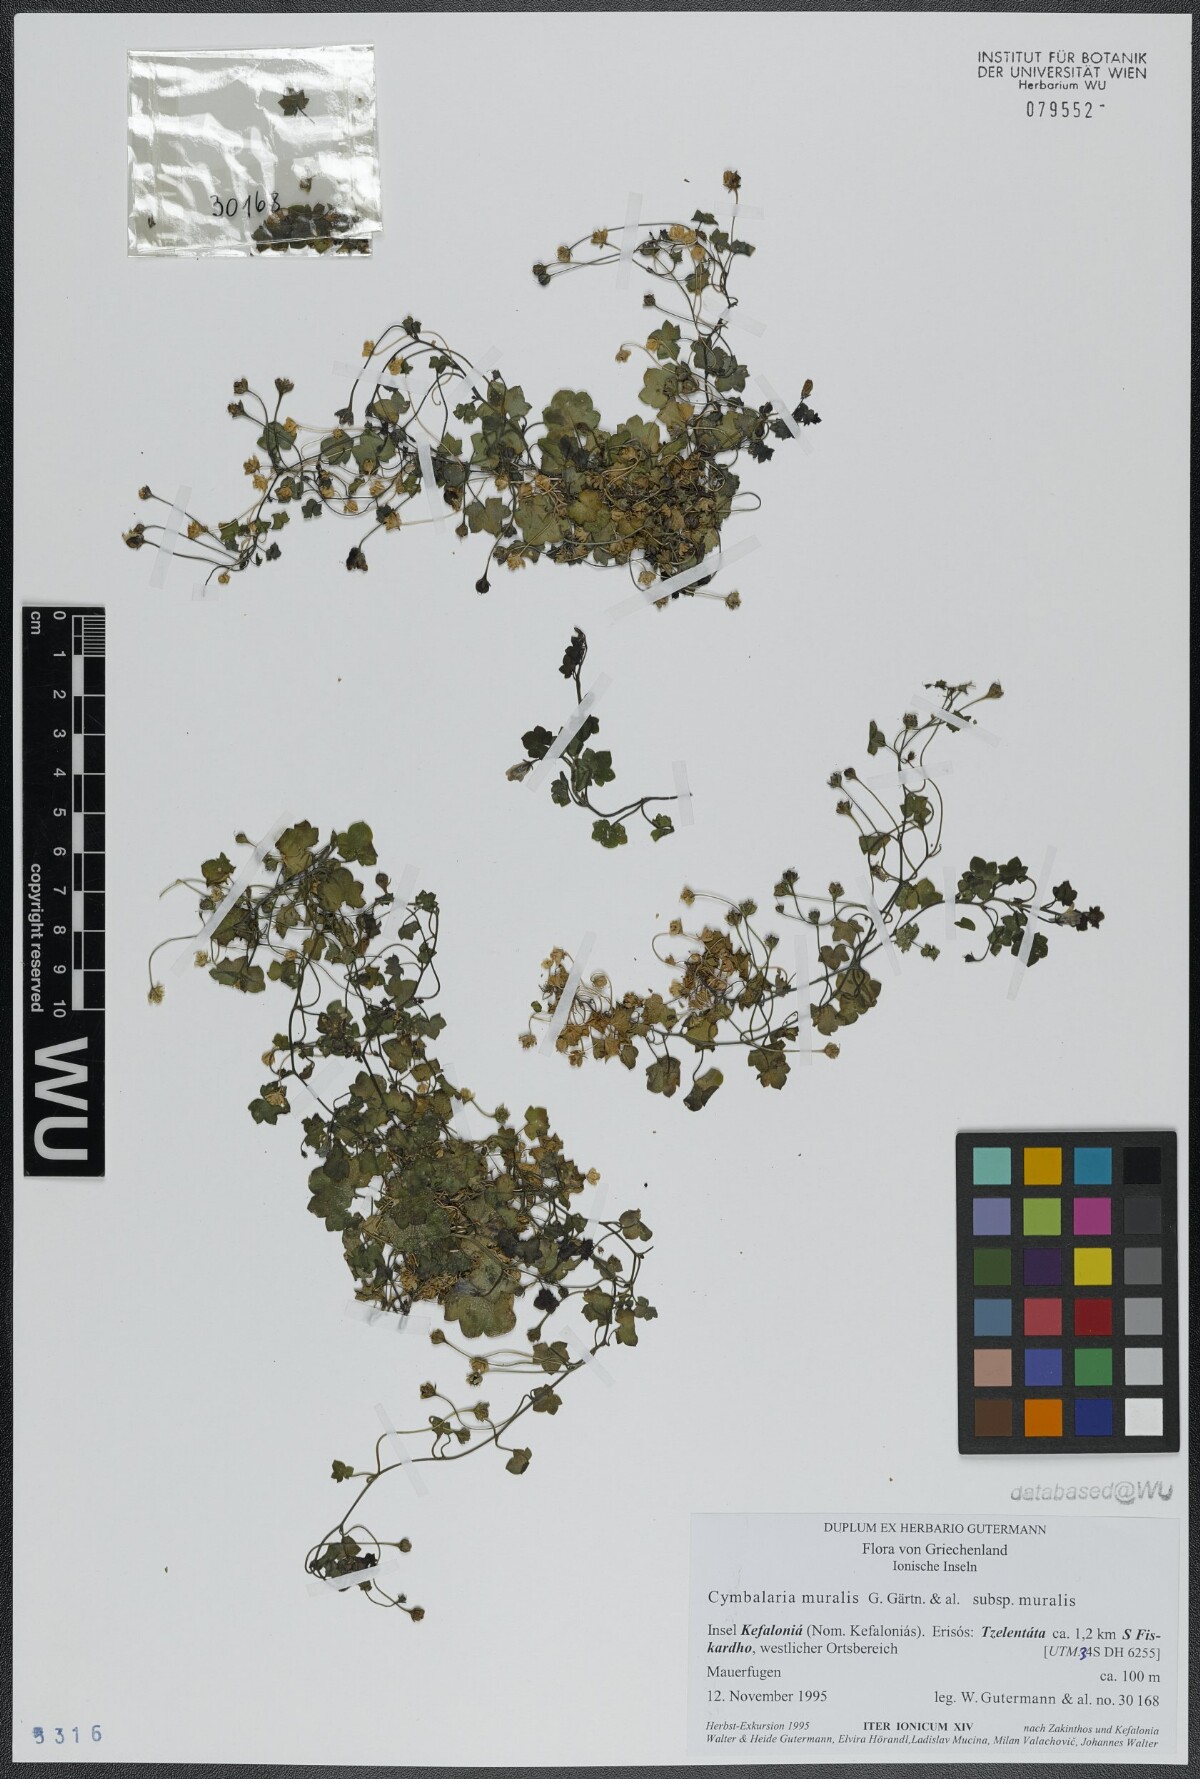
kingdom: Plantae
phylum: Tracheophyta
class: Magnoliopsida
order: Lamiales
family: Plantaginaceae
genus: Cymbalaria
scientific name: Cymbalaria muralis
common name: Ivy-leaved toadflax
